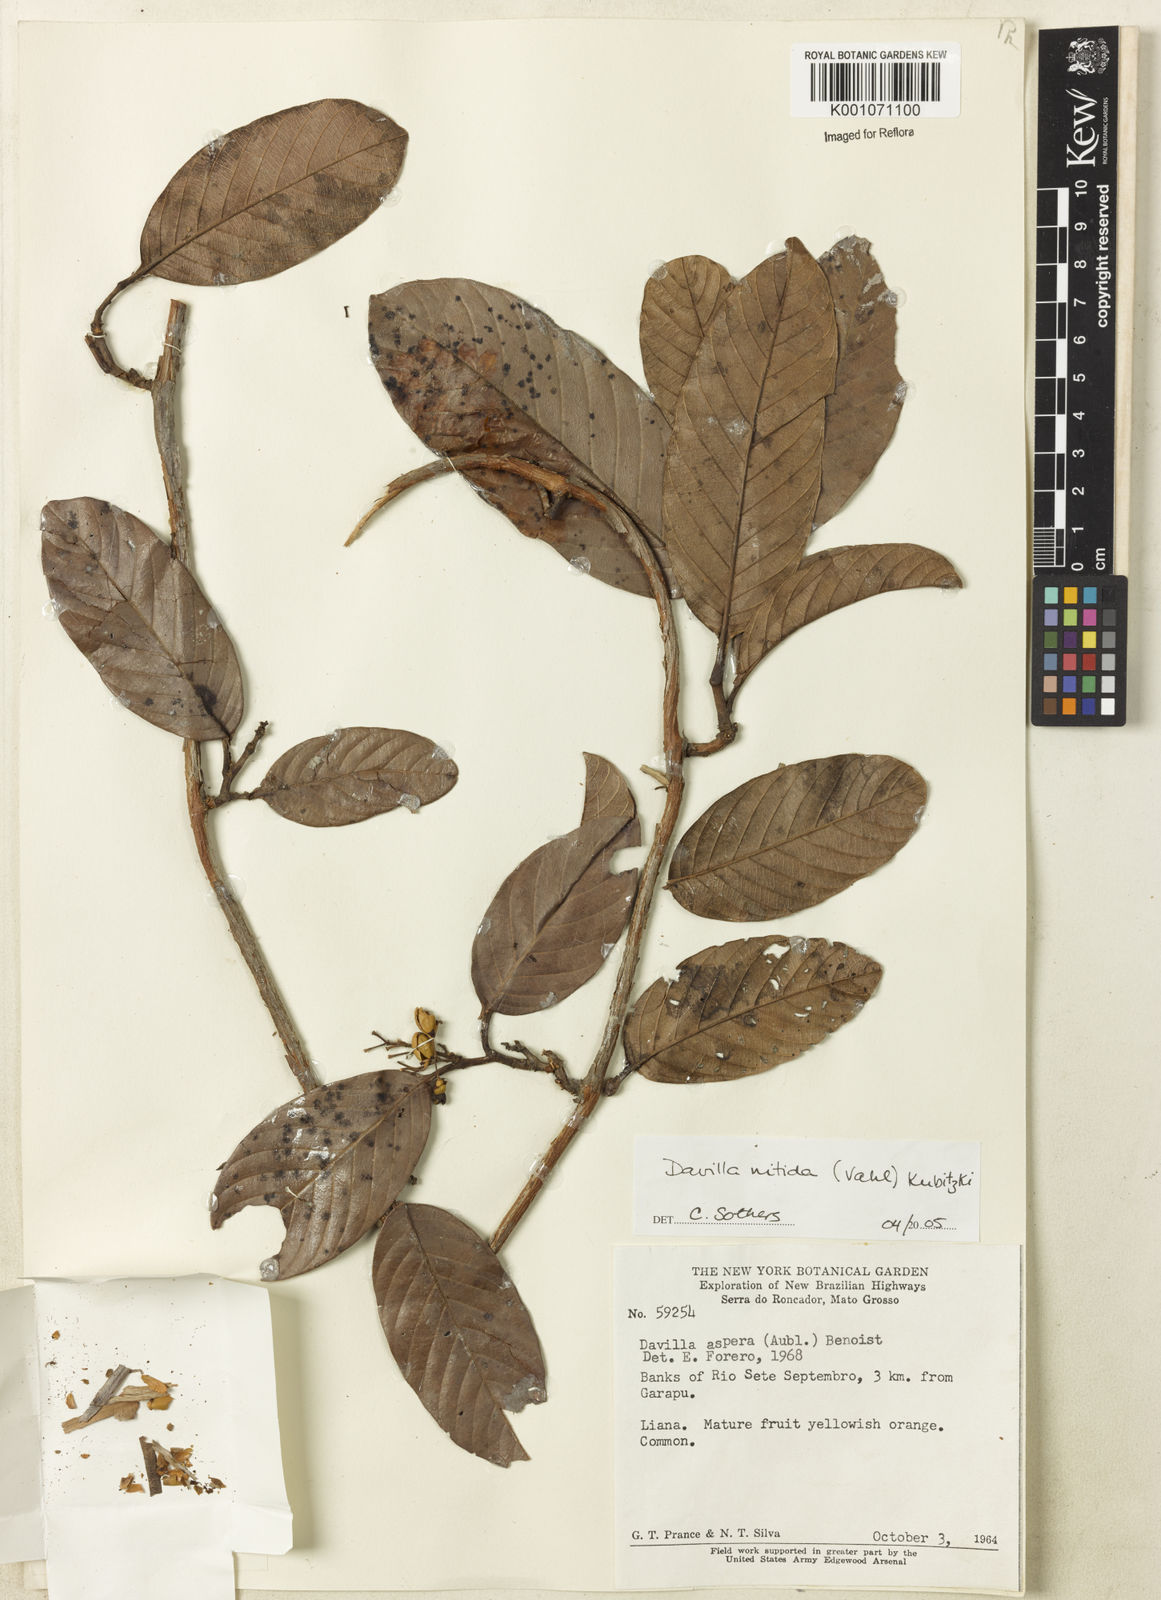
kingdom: Plantae
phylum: Tracheophyta
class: Magnoliopsida
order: Dilleniales
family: Dilleniaceae
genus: Davilla
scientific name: Davilla nitida
